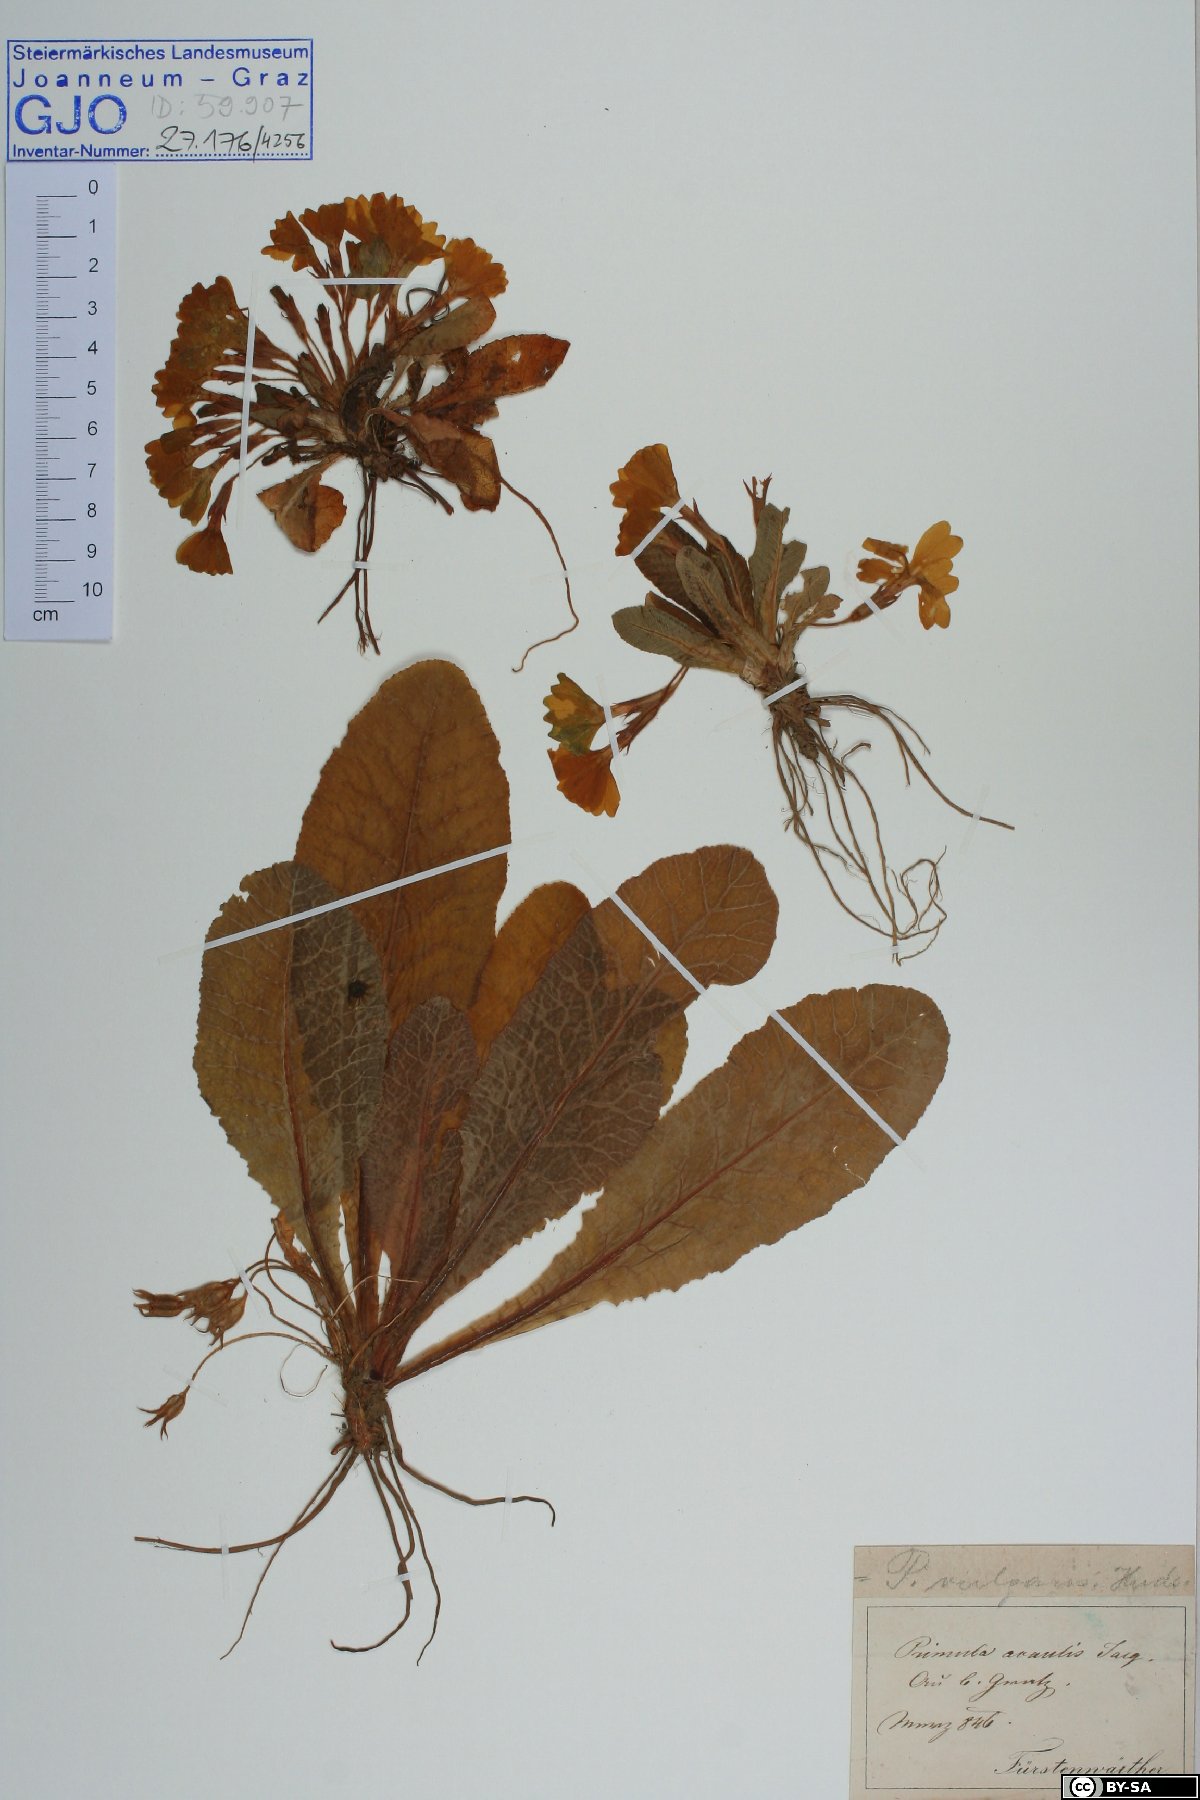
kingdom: Plantae
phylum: Tracheophyta
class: Magnoliopsida
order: Ericales
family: Primulaceae
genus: Primula
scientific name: Primula vulgaris
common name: Primrose
